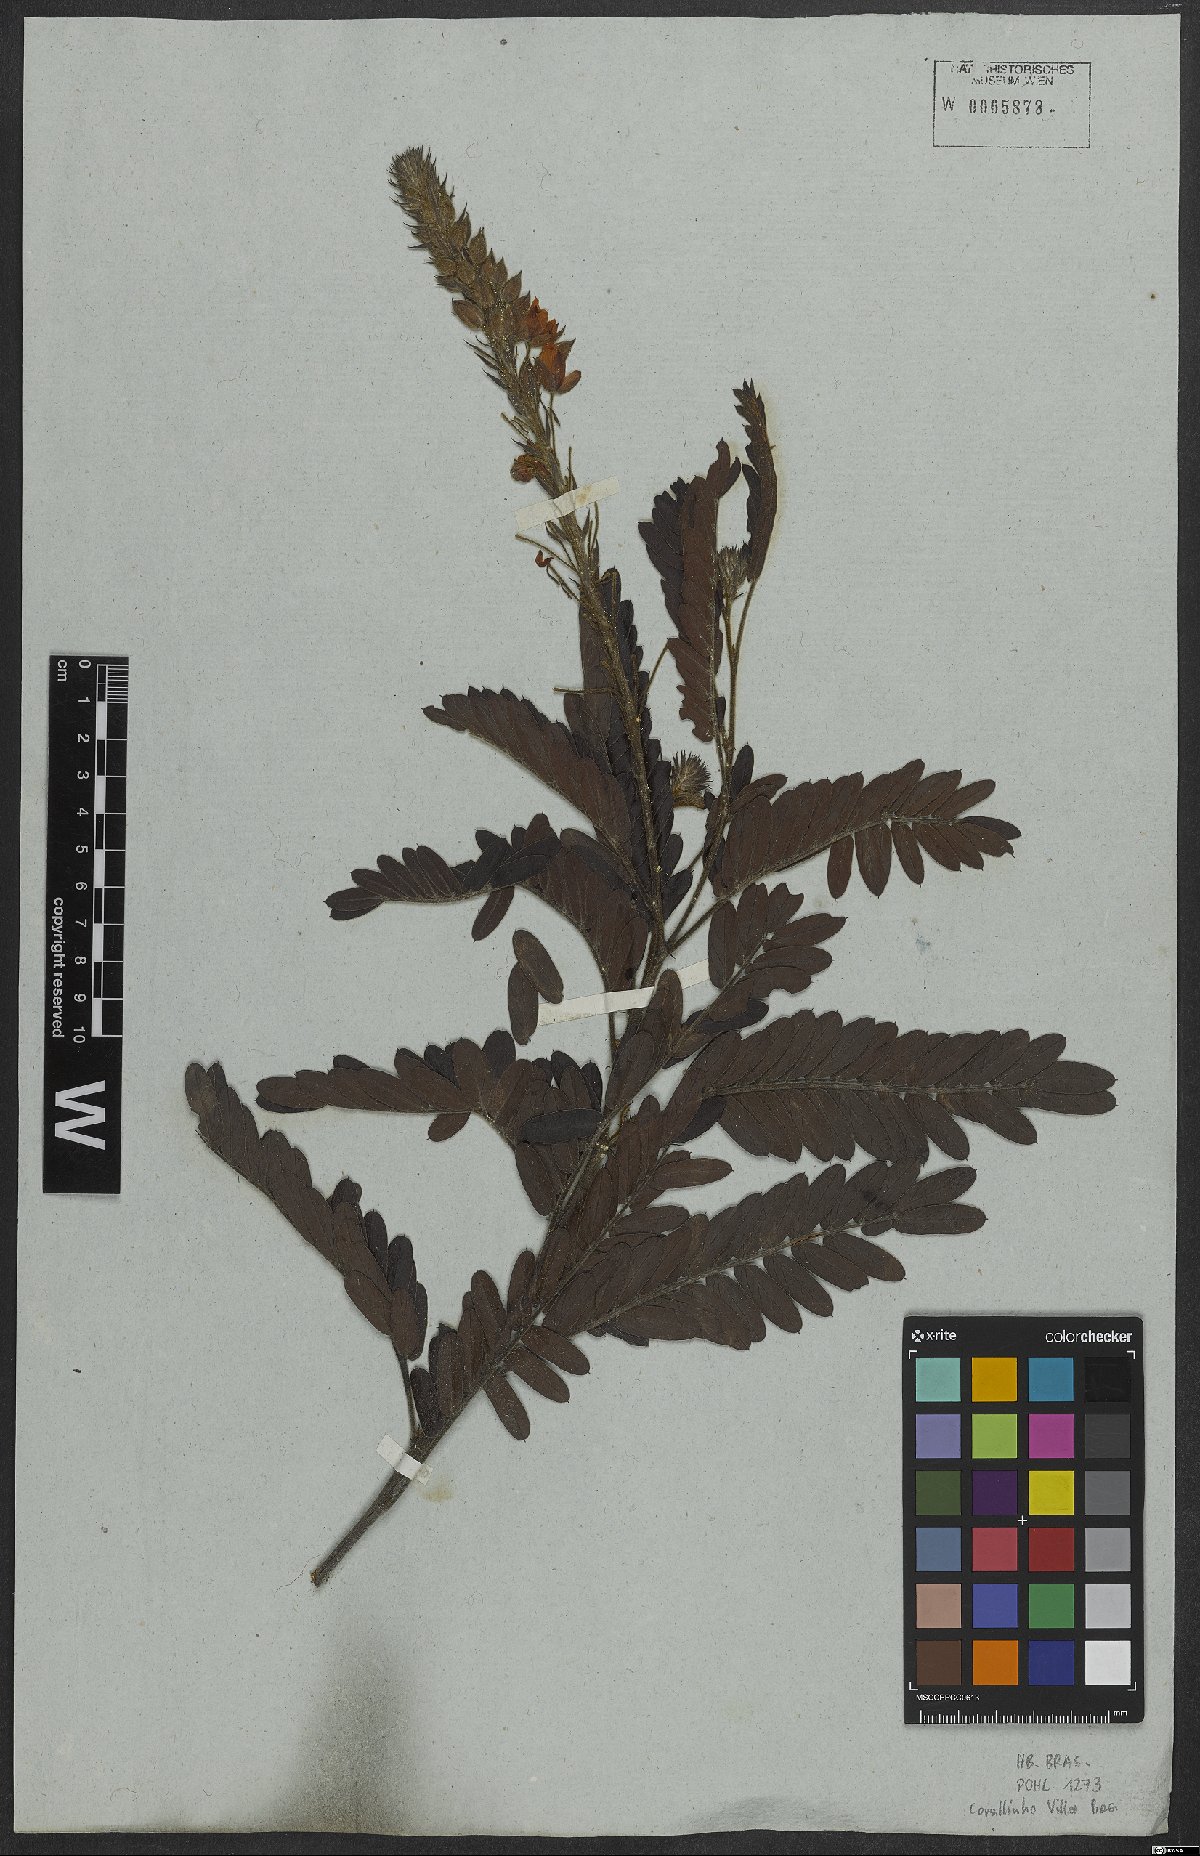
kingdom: Plantae
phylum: Tracheophyta
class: Magnoliopsida
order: Fabales
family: Fabaceae
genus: Chamaecrista
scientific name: Chamaecrista bracteolata
